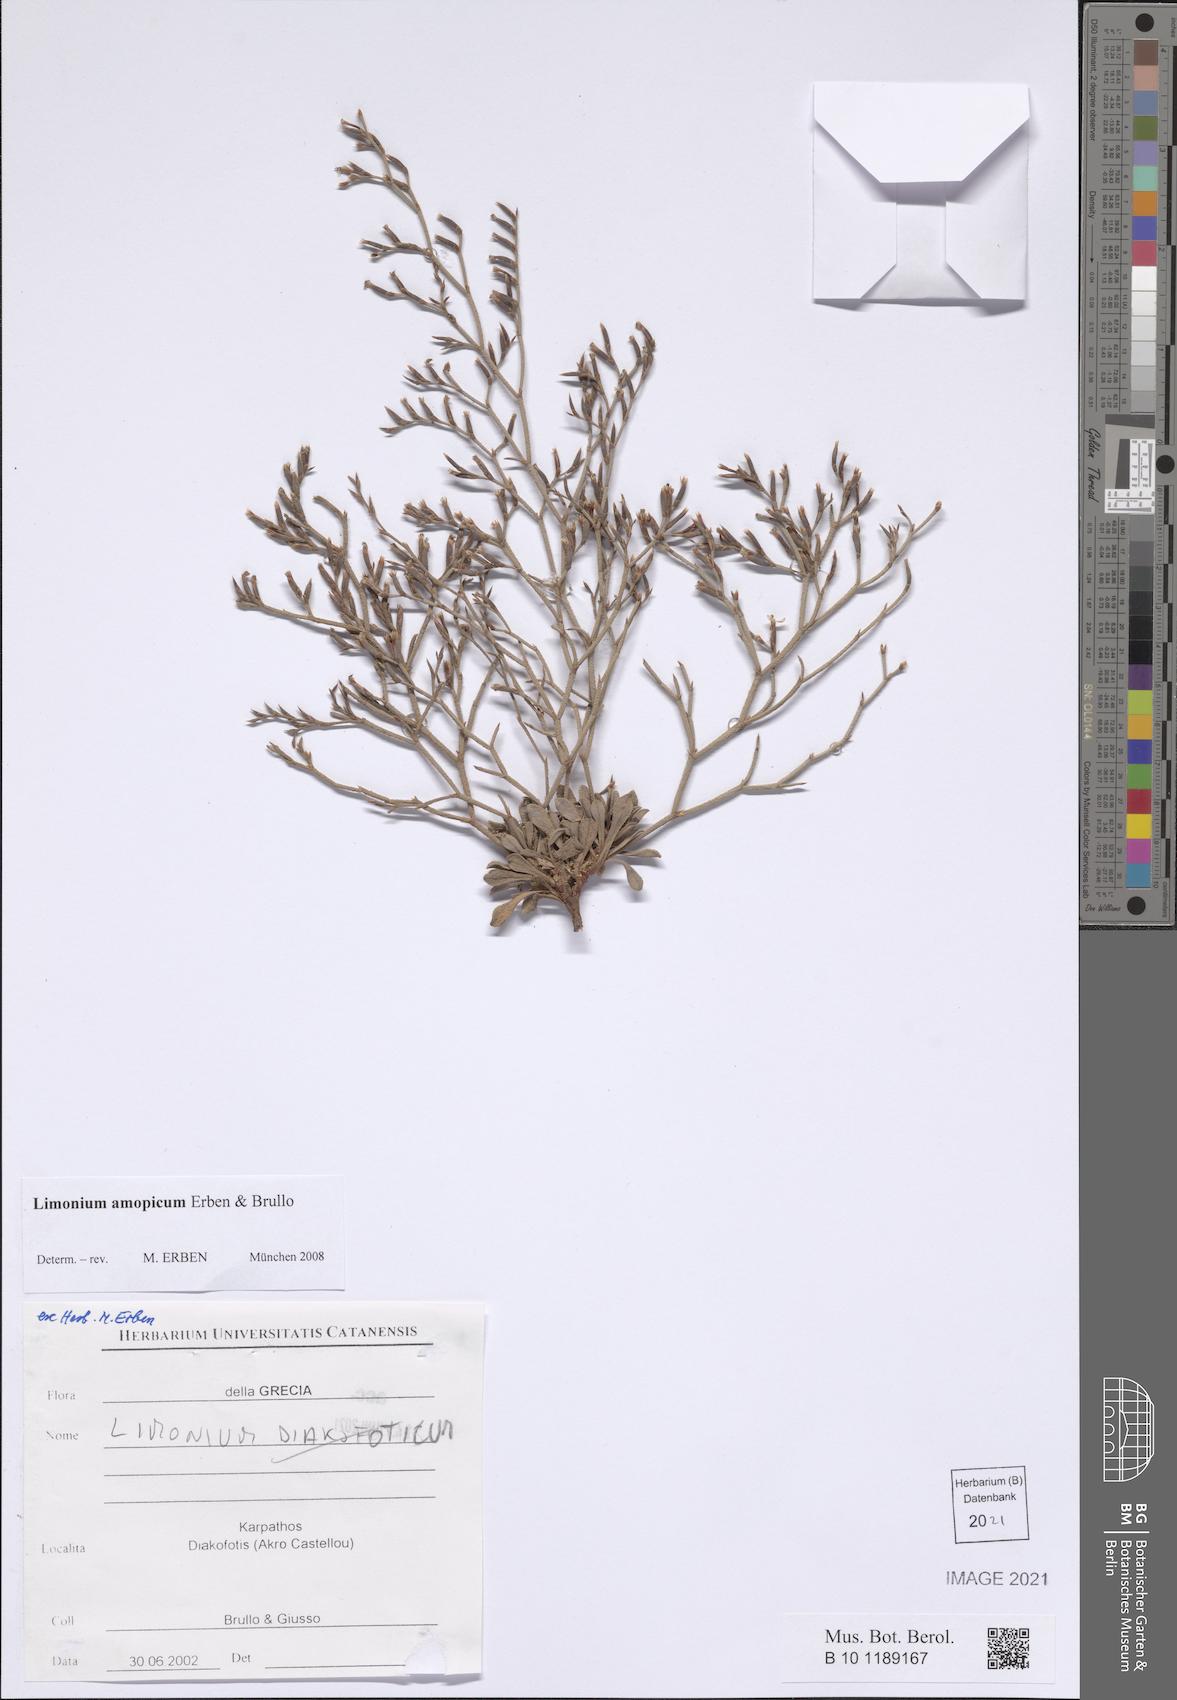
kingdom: Plantae
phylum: Tracheophyta
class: Magnoliopsida
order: Caryophyllales
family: Plumbaginaceae
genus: Limonium
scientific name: Limonium amopicum
